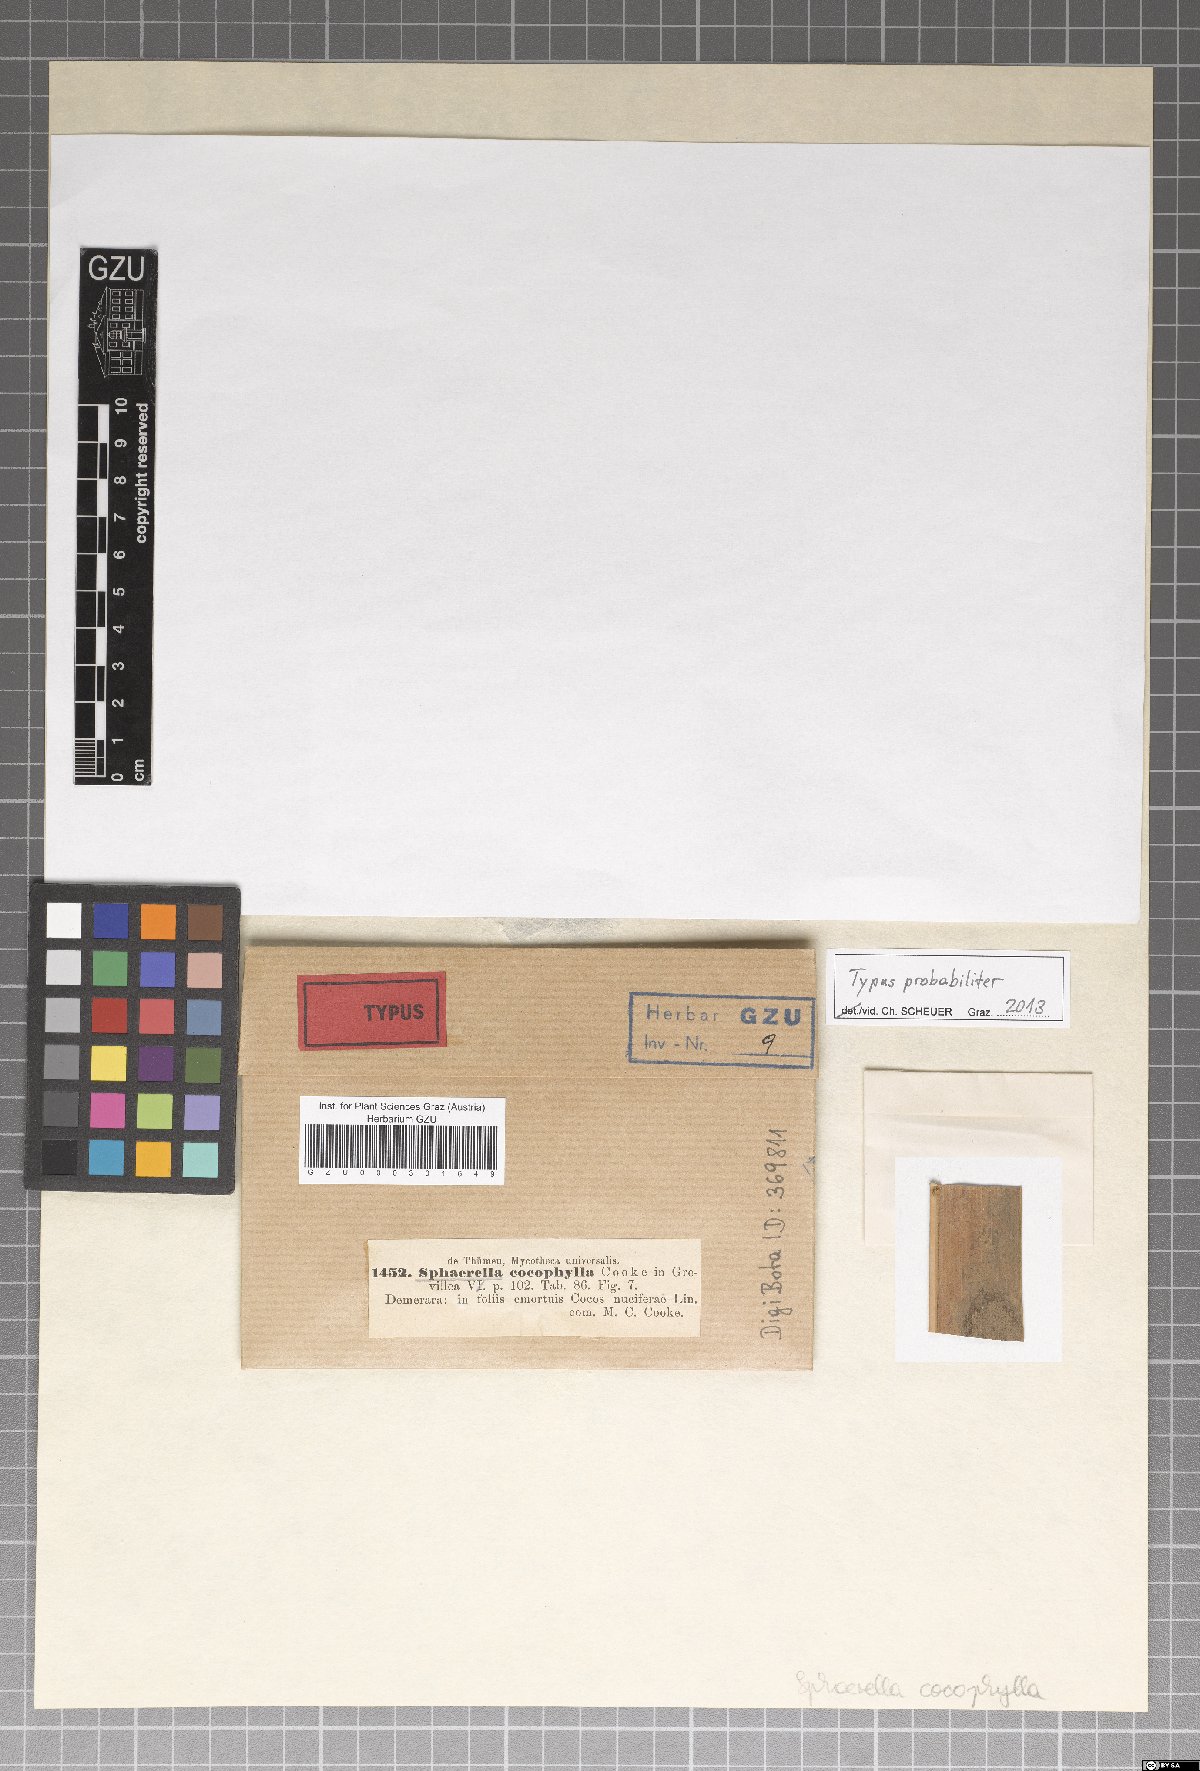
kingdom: Fungi
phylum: Ascomycota
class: Dothideomycetes
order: Mycosphaerellales
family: Mycosphaerellaceae
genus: Sphaerella
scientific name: Sphaerella
